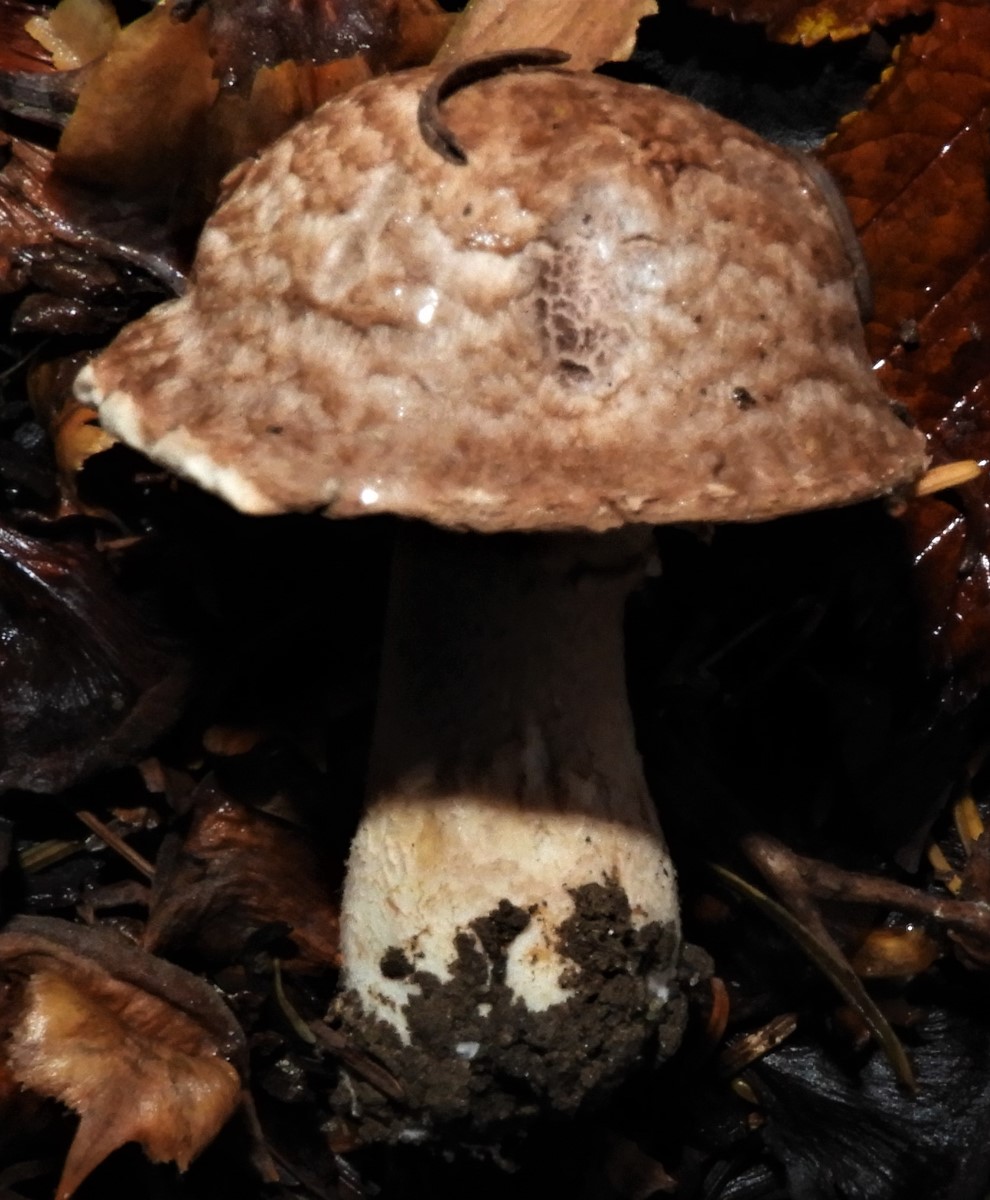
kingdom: Fungi
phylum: Basidiomycota
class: Agaricomycetes
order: Agaricales
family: Agaricaceae
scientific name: Agaricaceae
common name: champignonfamilien
